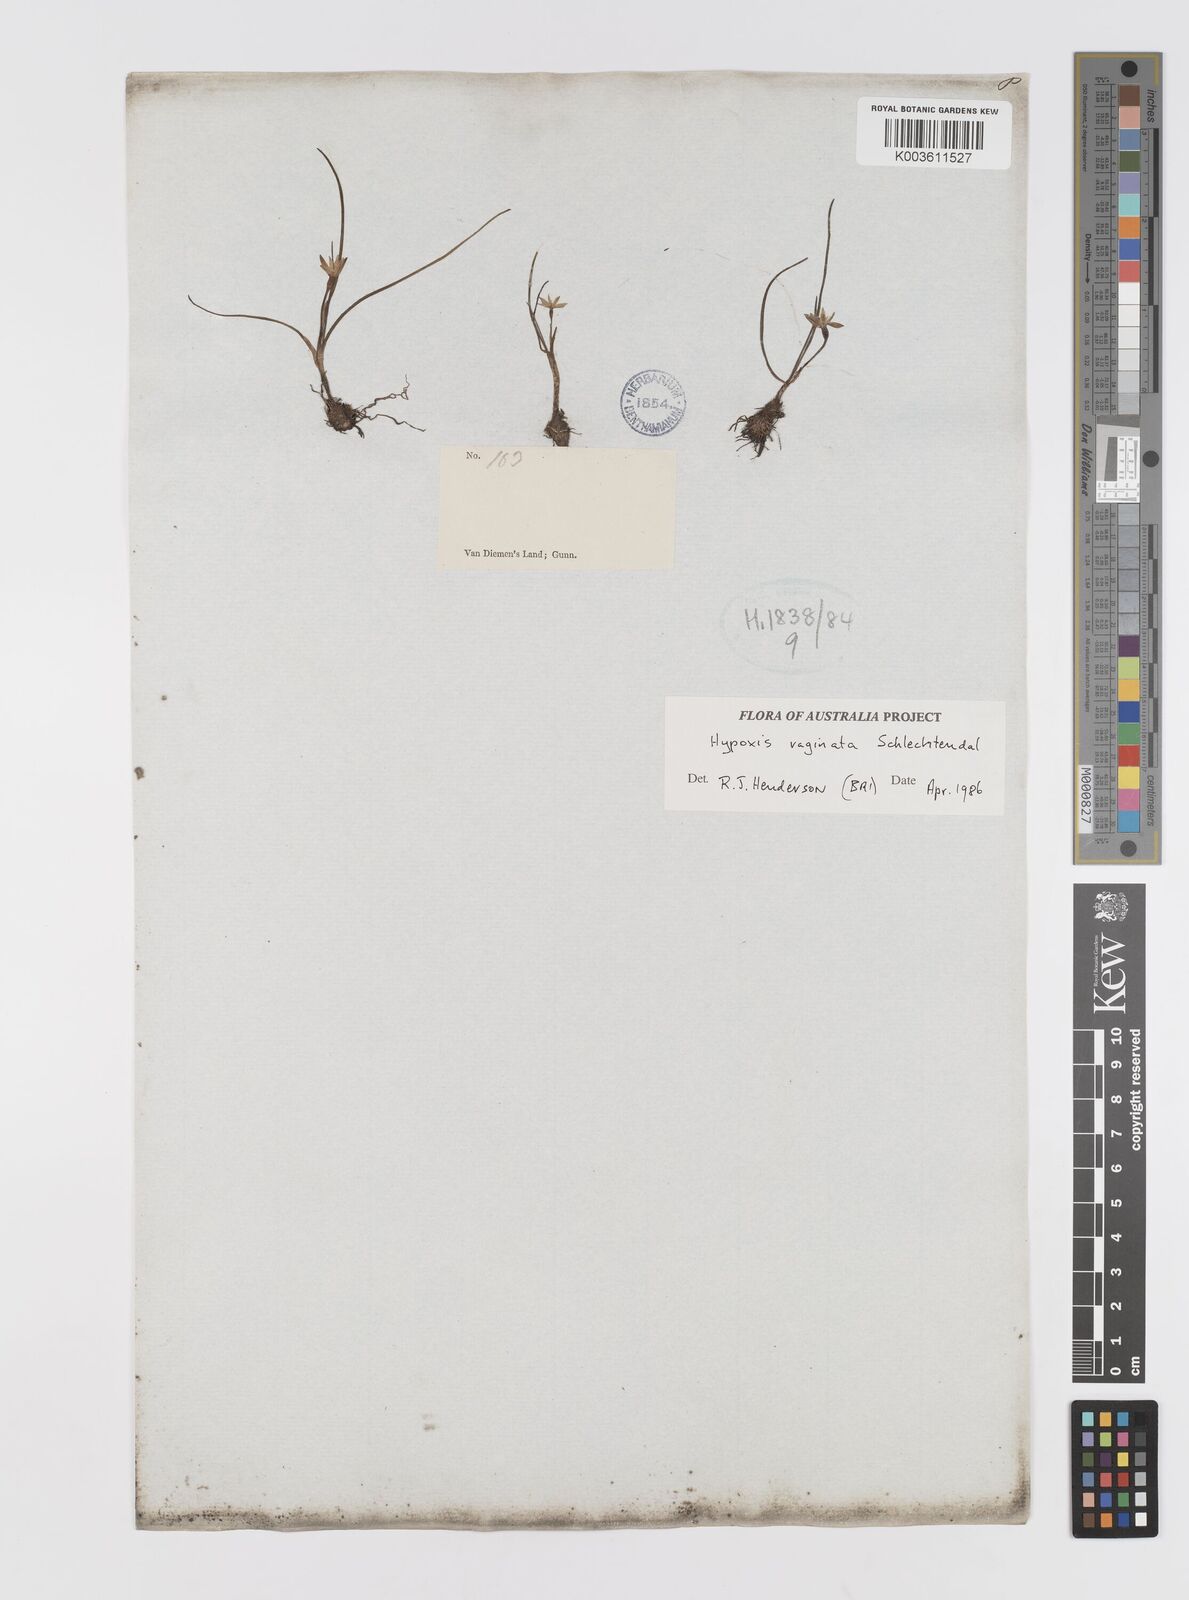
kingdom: Plantae
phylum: Tracheophyta
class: Liliopsida
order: Asparagales
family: Hypoxidaceae
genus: Pauridia
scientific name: Pauridia vaginata
